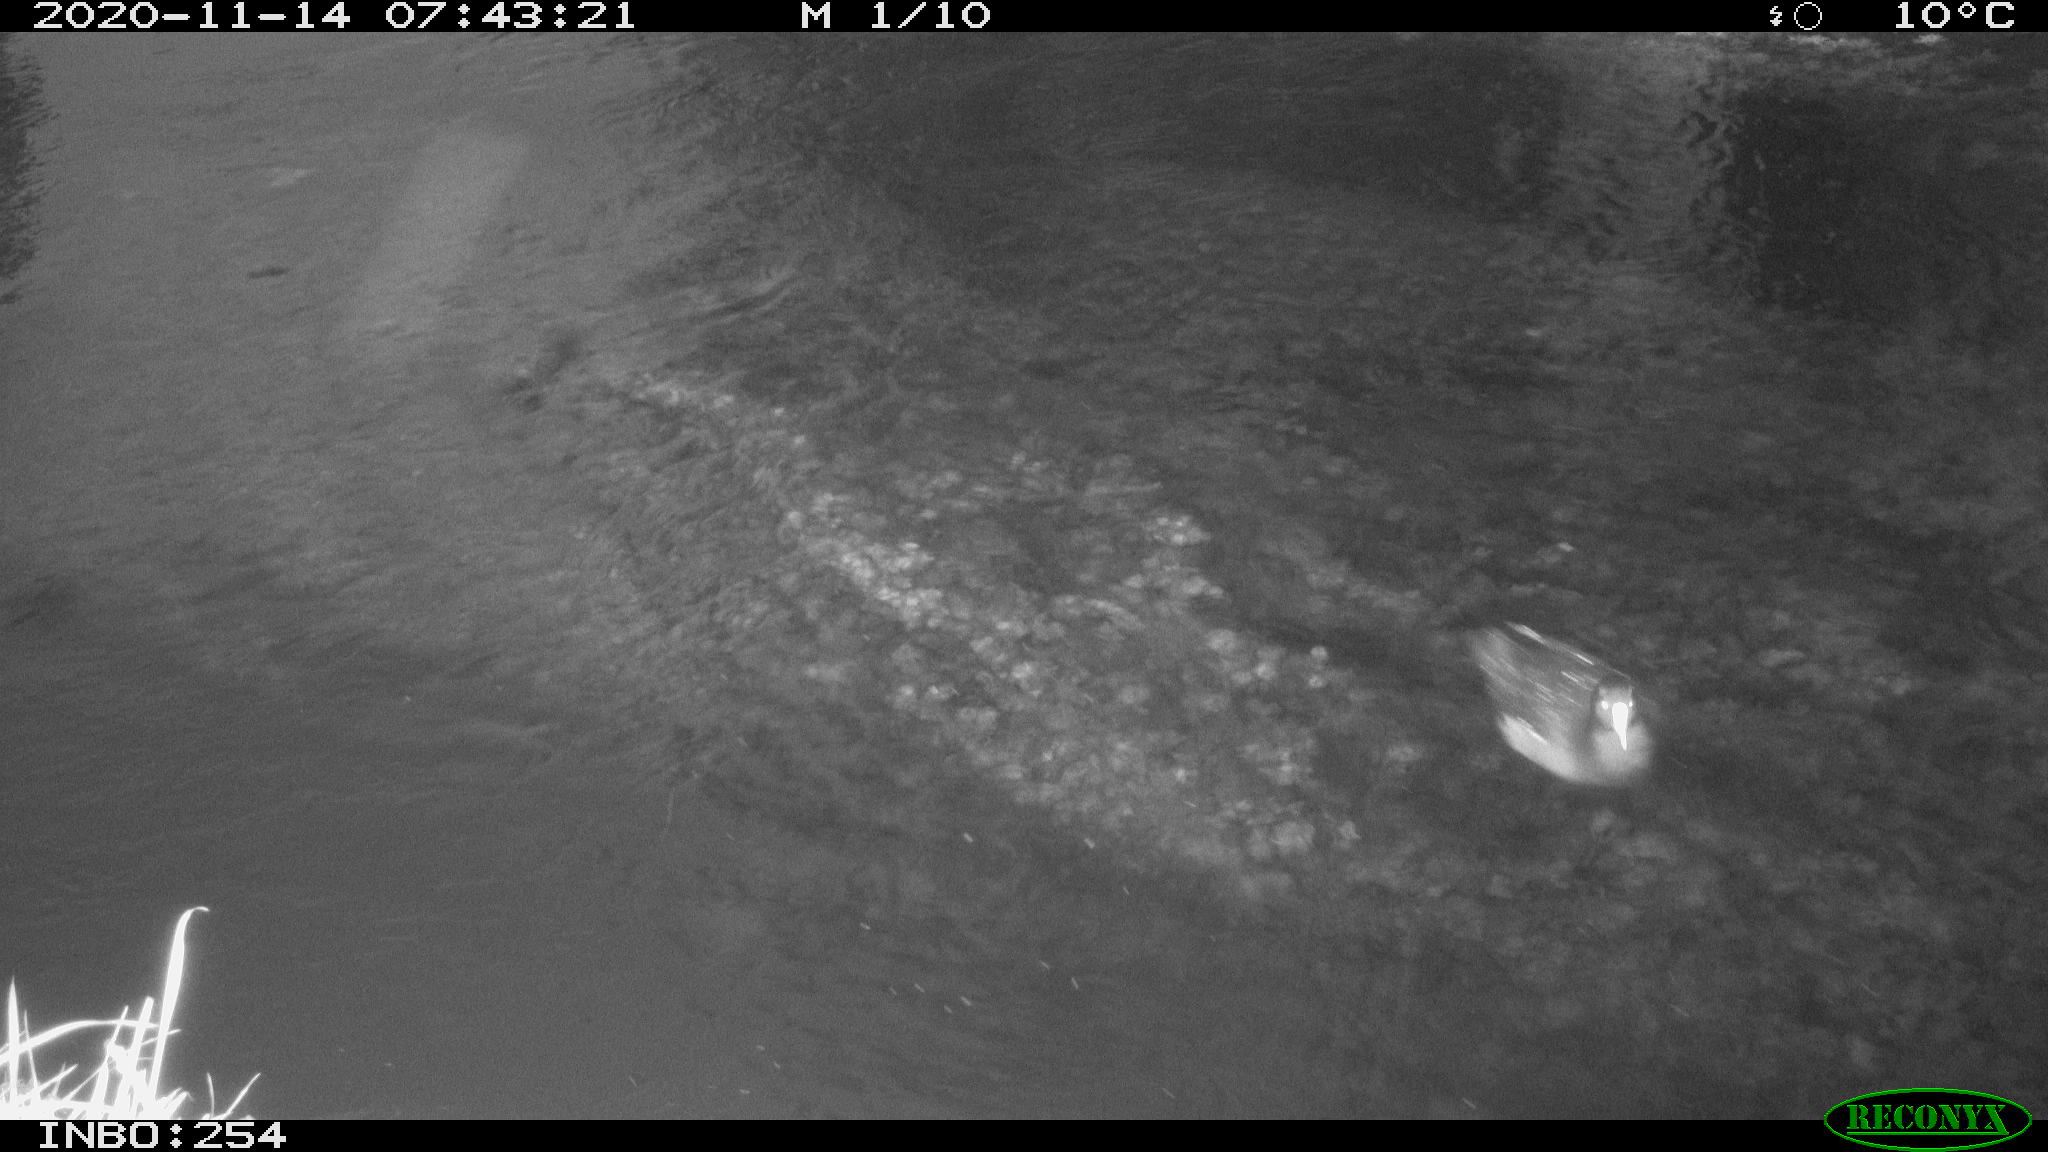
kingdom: Animalia
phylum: Chordata
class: Aves
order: Gruiformes
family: Rallidae
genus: Fulica
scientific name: Fulica atra
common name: Eurasian coot
